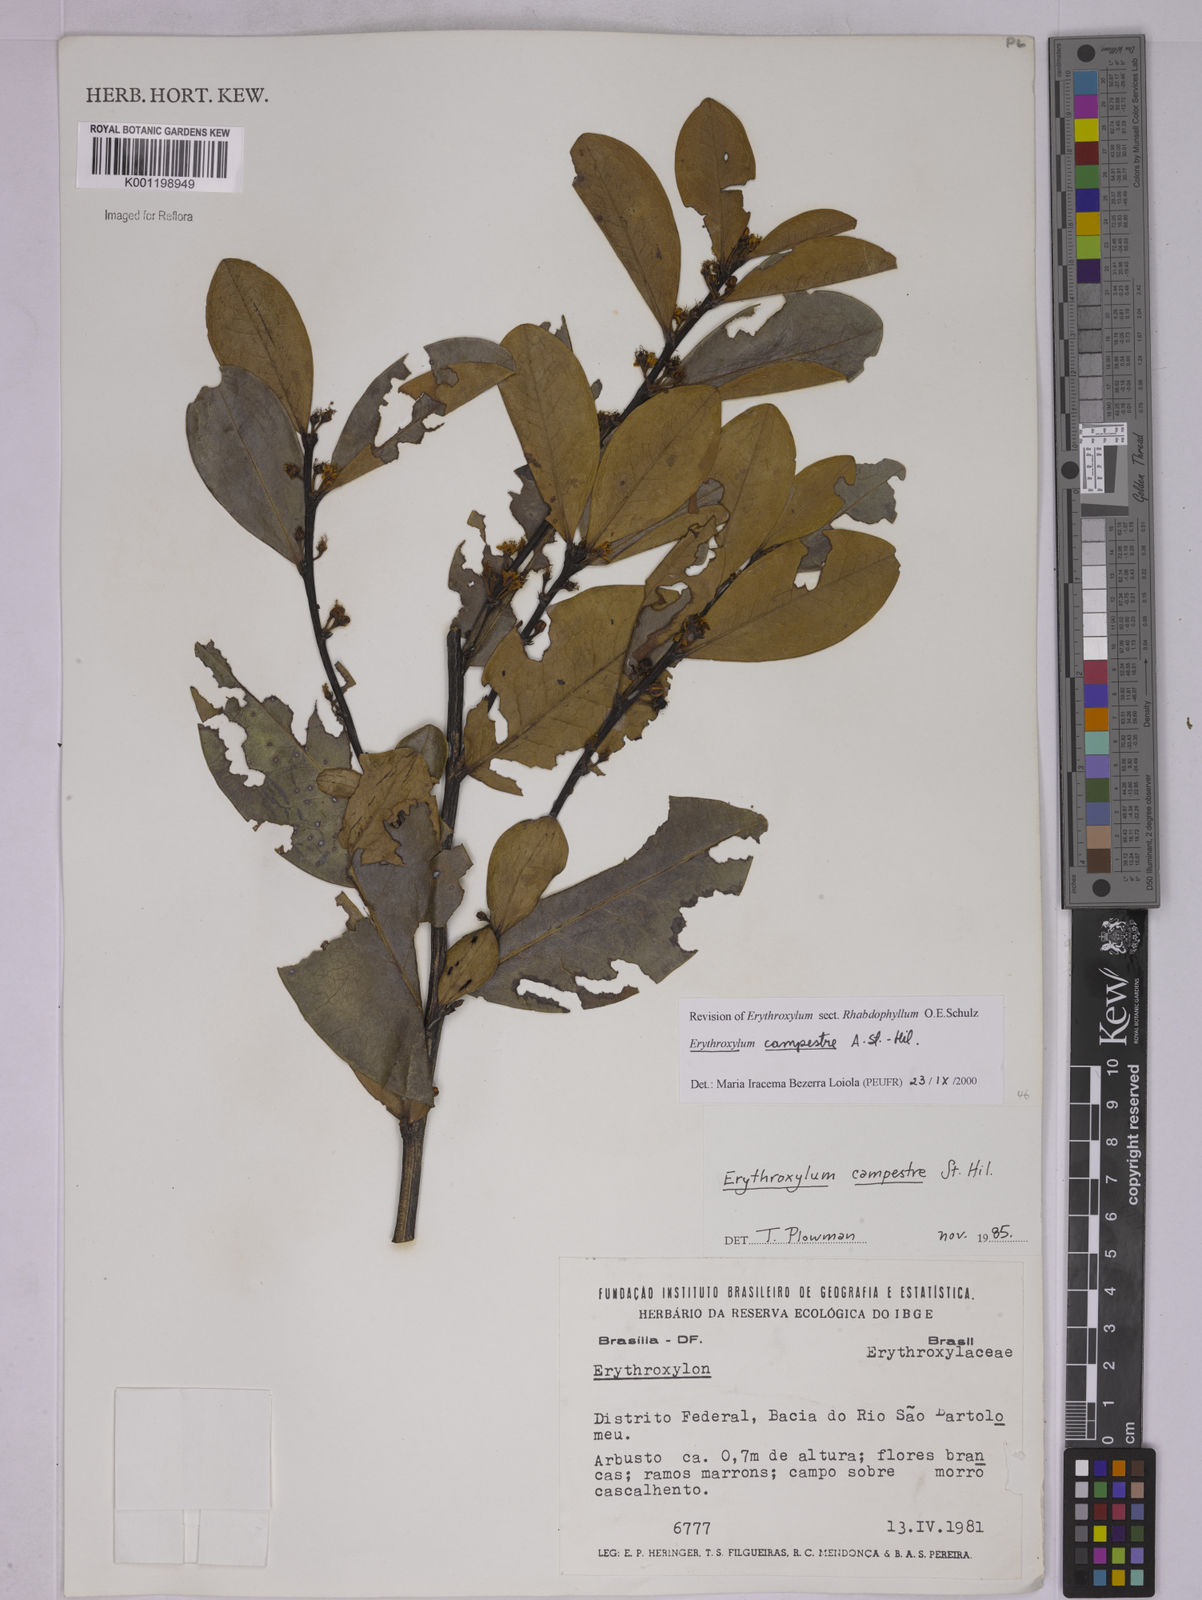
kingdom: Plantae
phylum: Tracheophyta
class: Magnoliopsida
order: Malpighiales
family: Erythroxylaceae
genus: Erythroxylum
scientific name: Erythroxylum campestre
